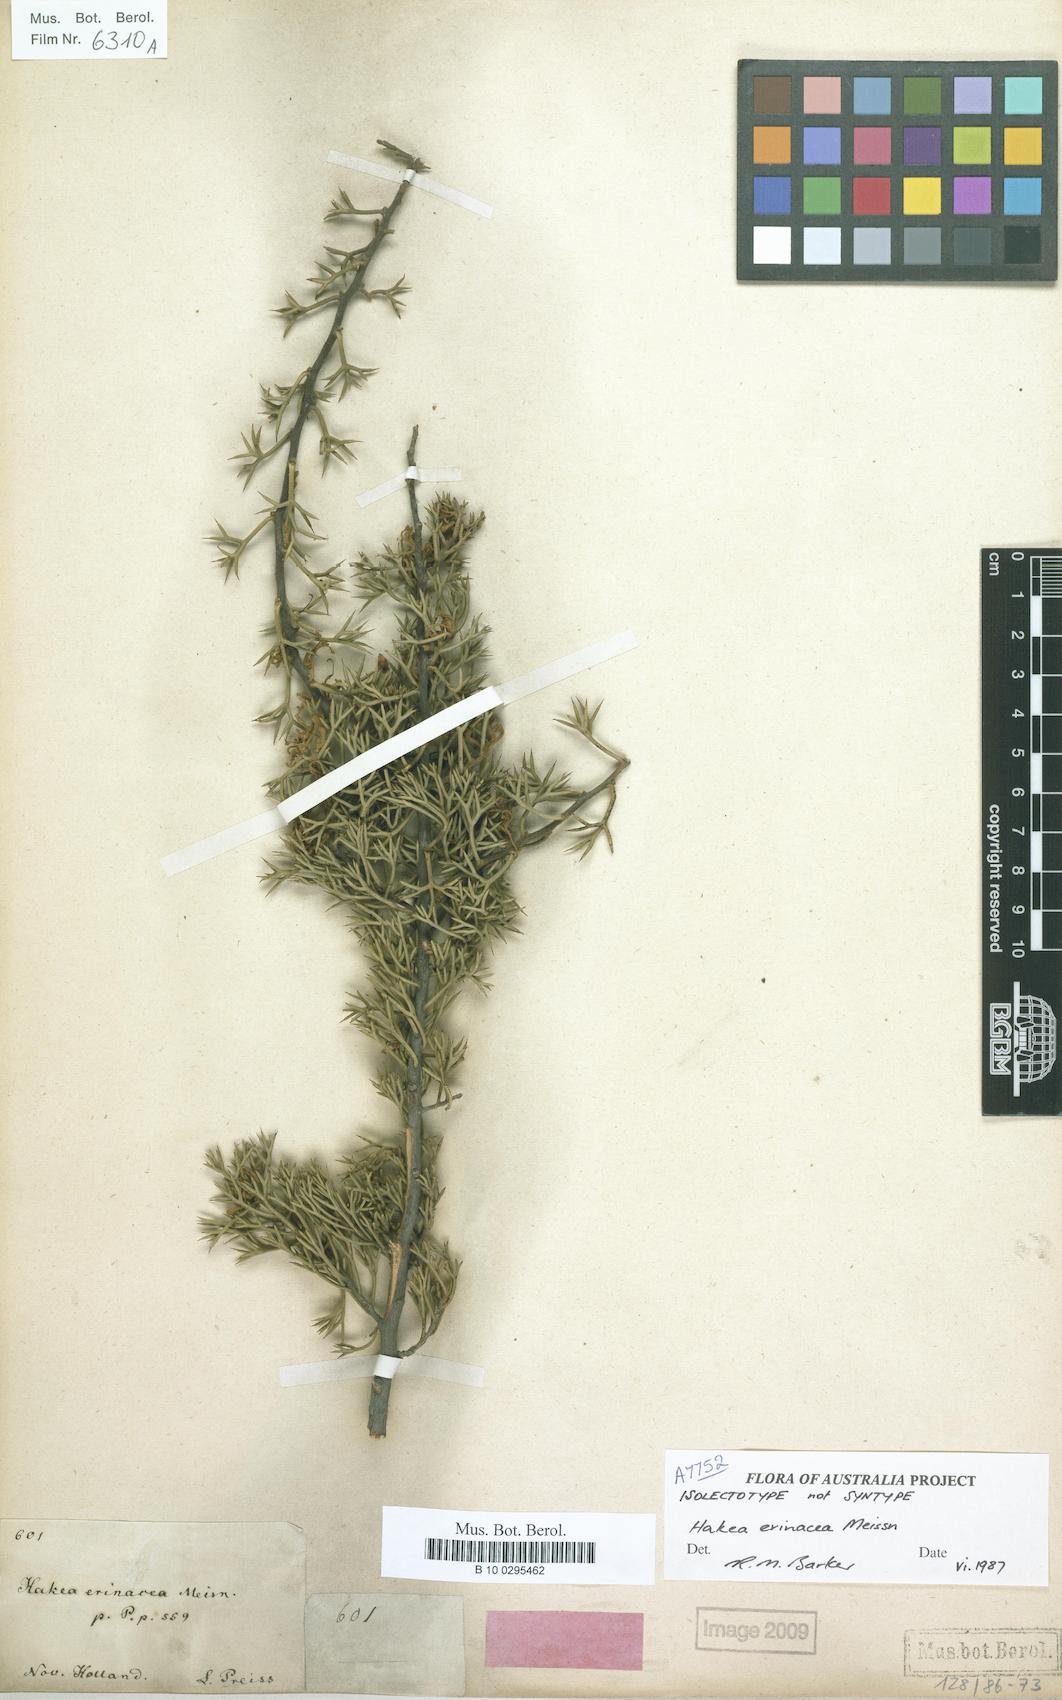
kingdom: Plantae
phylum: Tracheophyta
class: Magnoliopsida
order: Proteales
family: Proteaceae
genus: Hakea
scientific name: Hakea erinacea
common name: Hedgehog hakea
